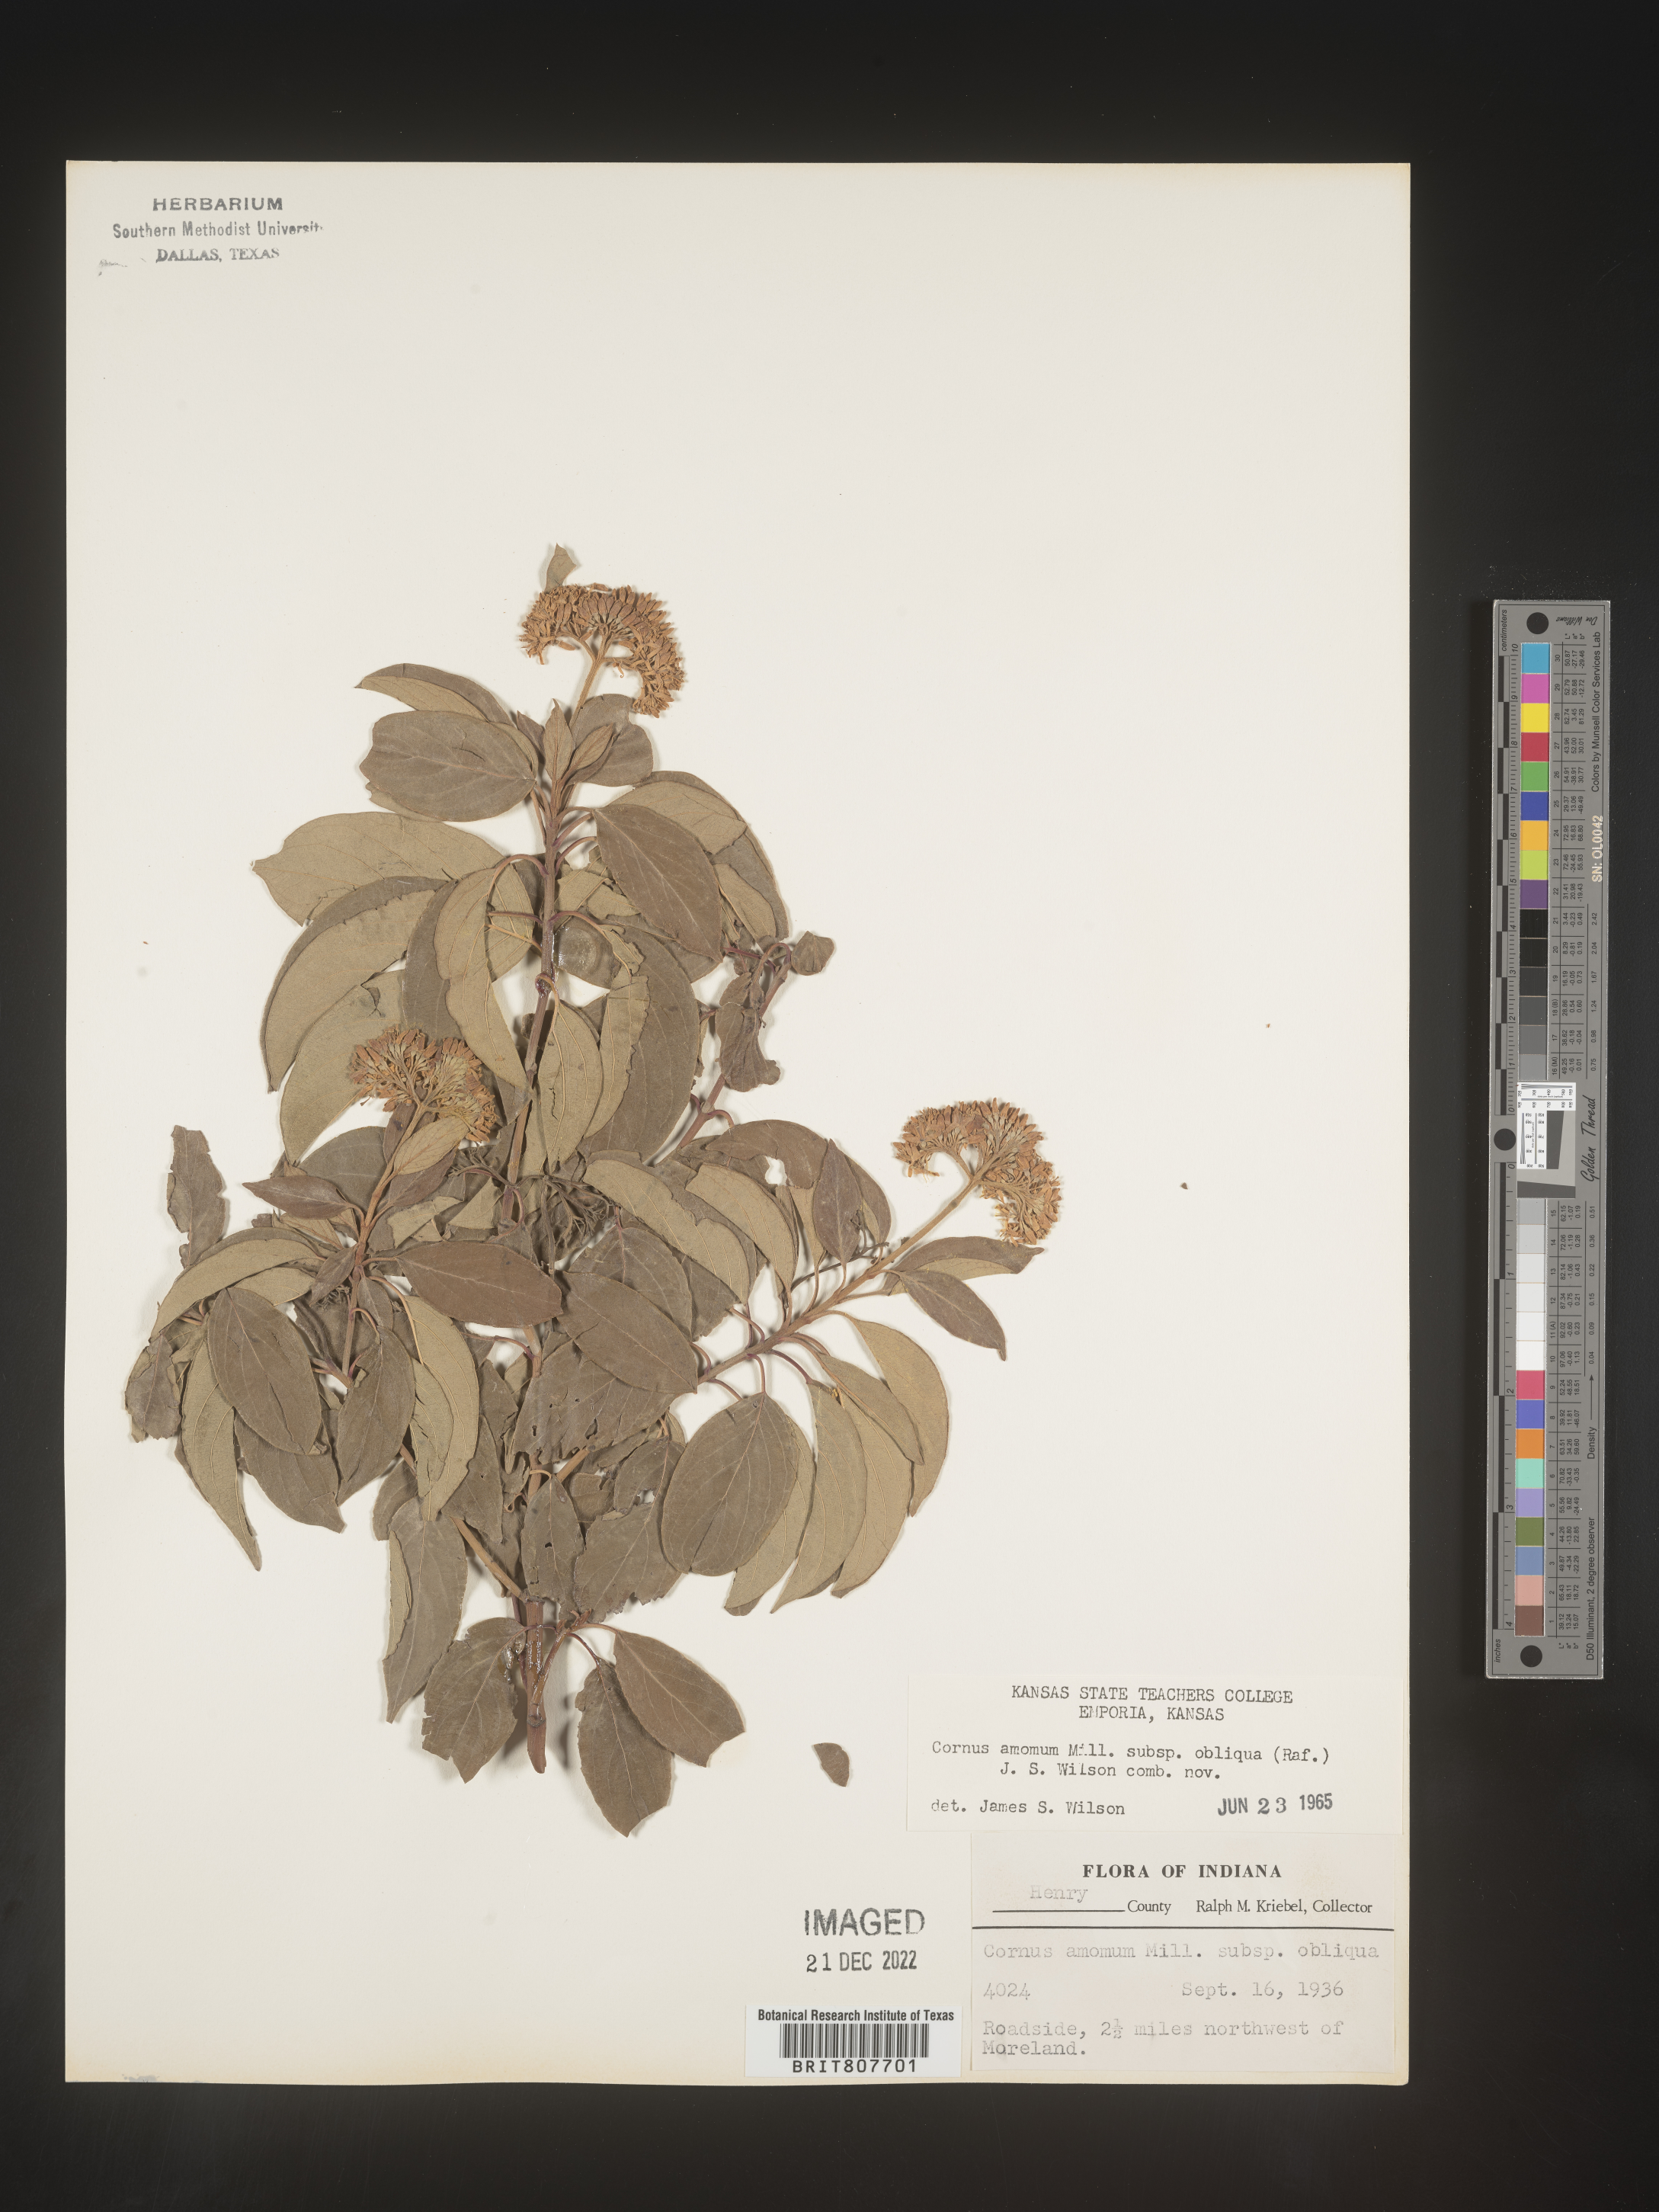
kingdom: Plantae
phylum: Tracheophyta
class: Magnoliopsida
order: Cornales
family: Cornaceae
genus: Cornus
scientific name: Cornus obliqua
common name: Pale dogwood
